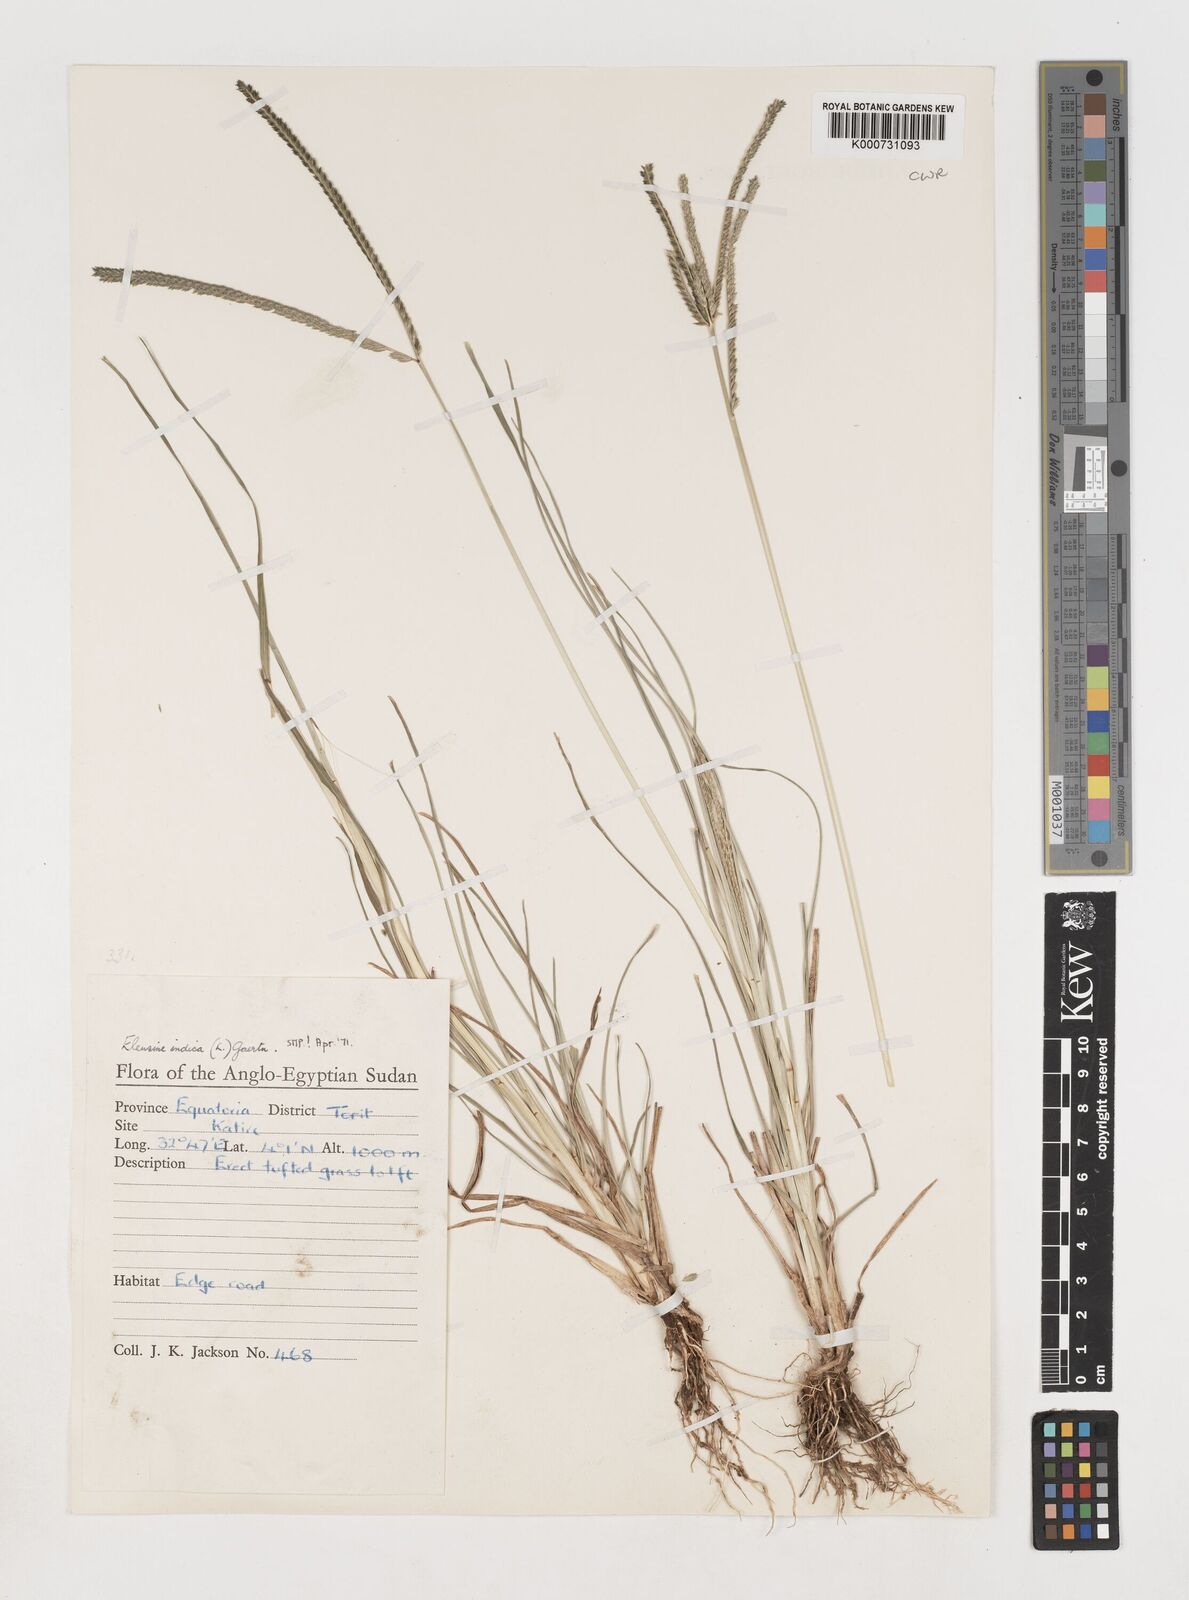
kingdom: Plantae
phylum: Tracheophyta
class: Liliopsida
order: Poales
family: Poaceae
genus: Eleusine
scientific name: Eleusine indica
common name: Yard-grass
